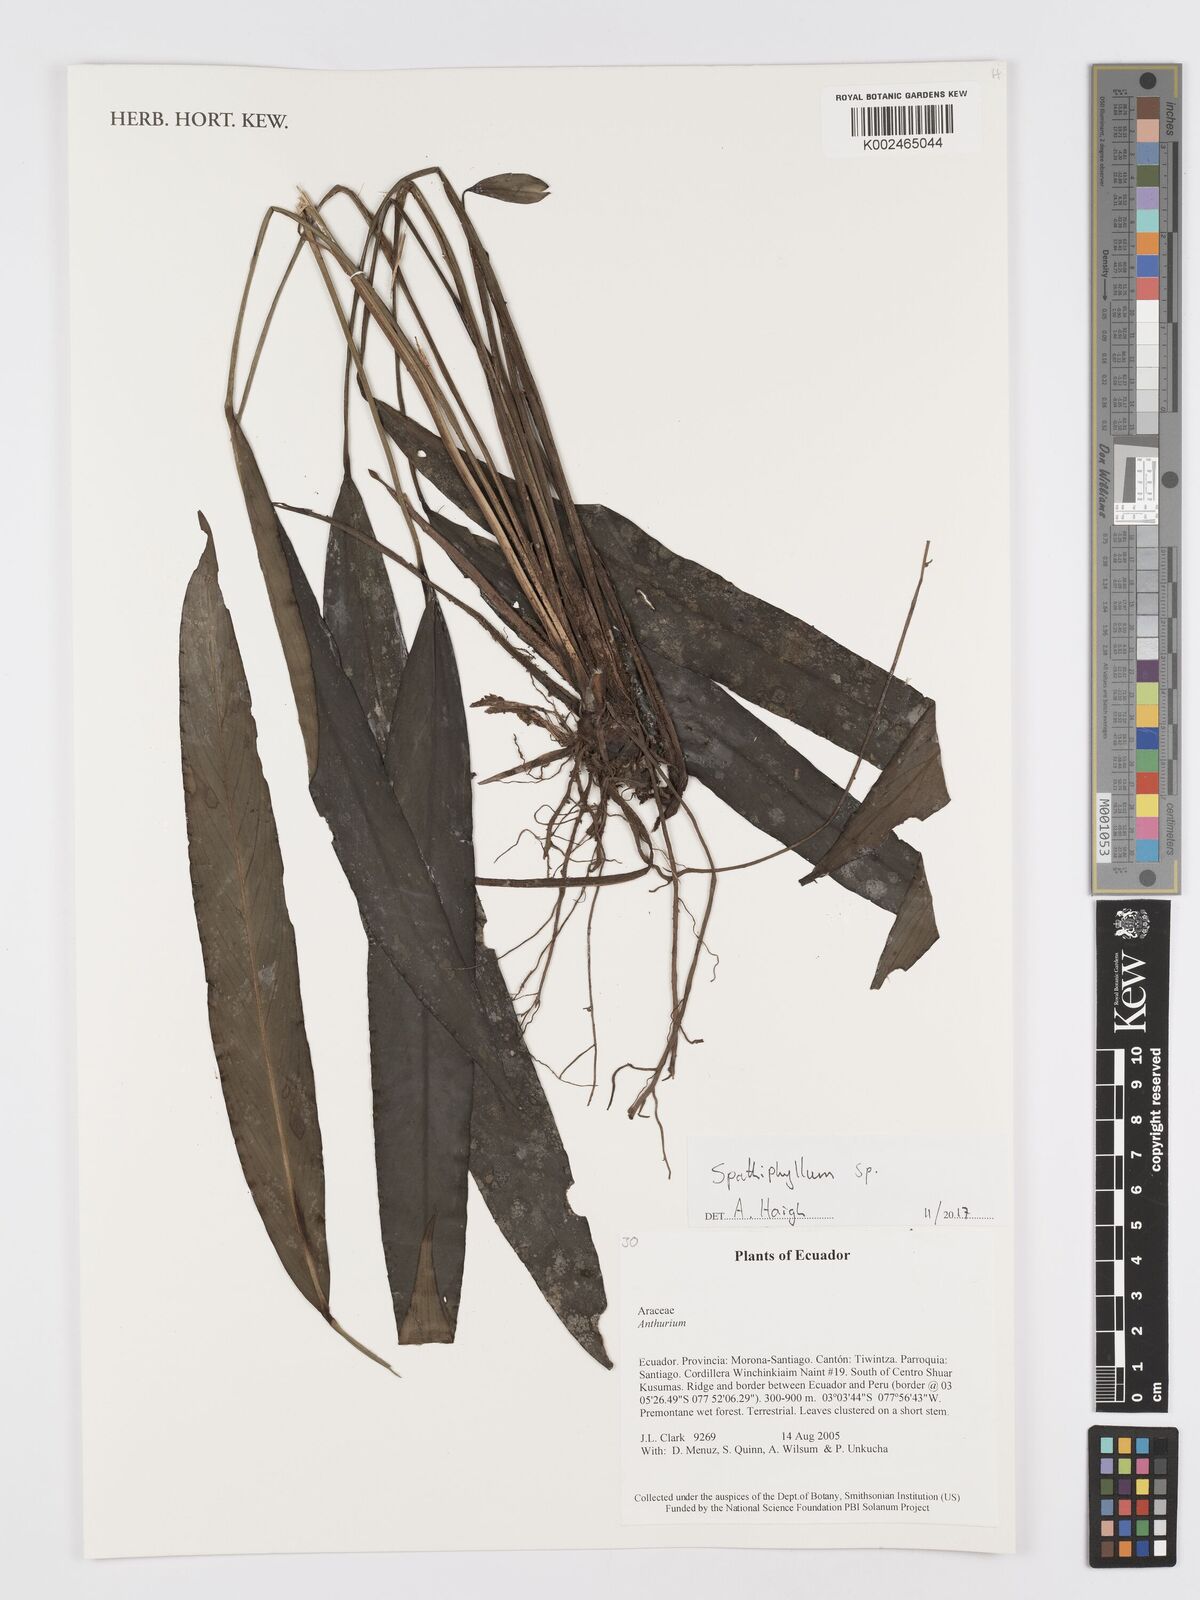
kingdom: Plantae
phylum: Tracheophyta
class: Liliopsida
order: Alismatales
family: Araceae
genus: Spathiphyllum
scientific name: Spathiphyllum
